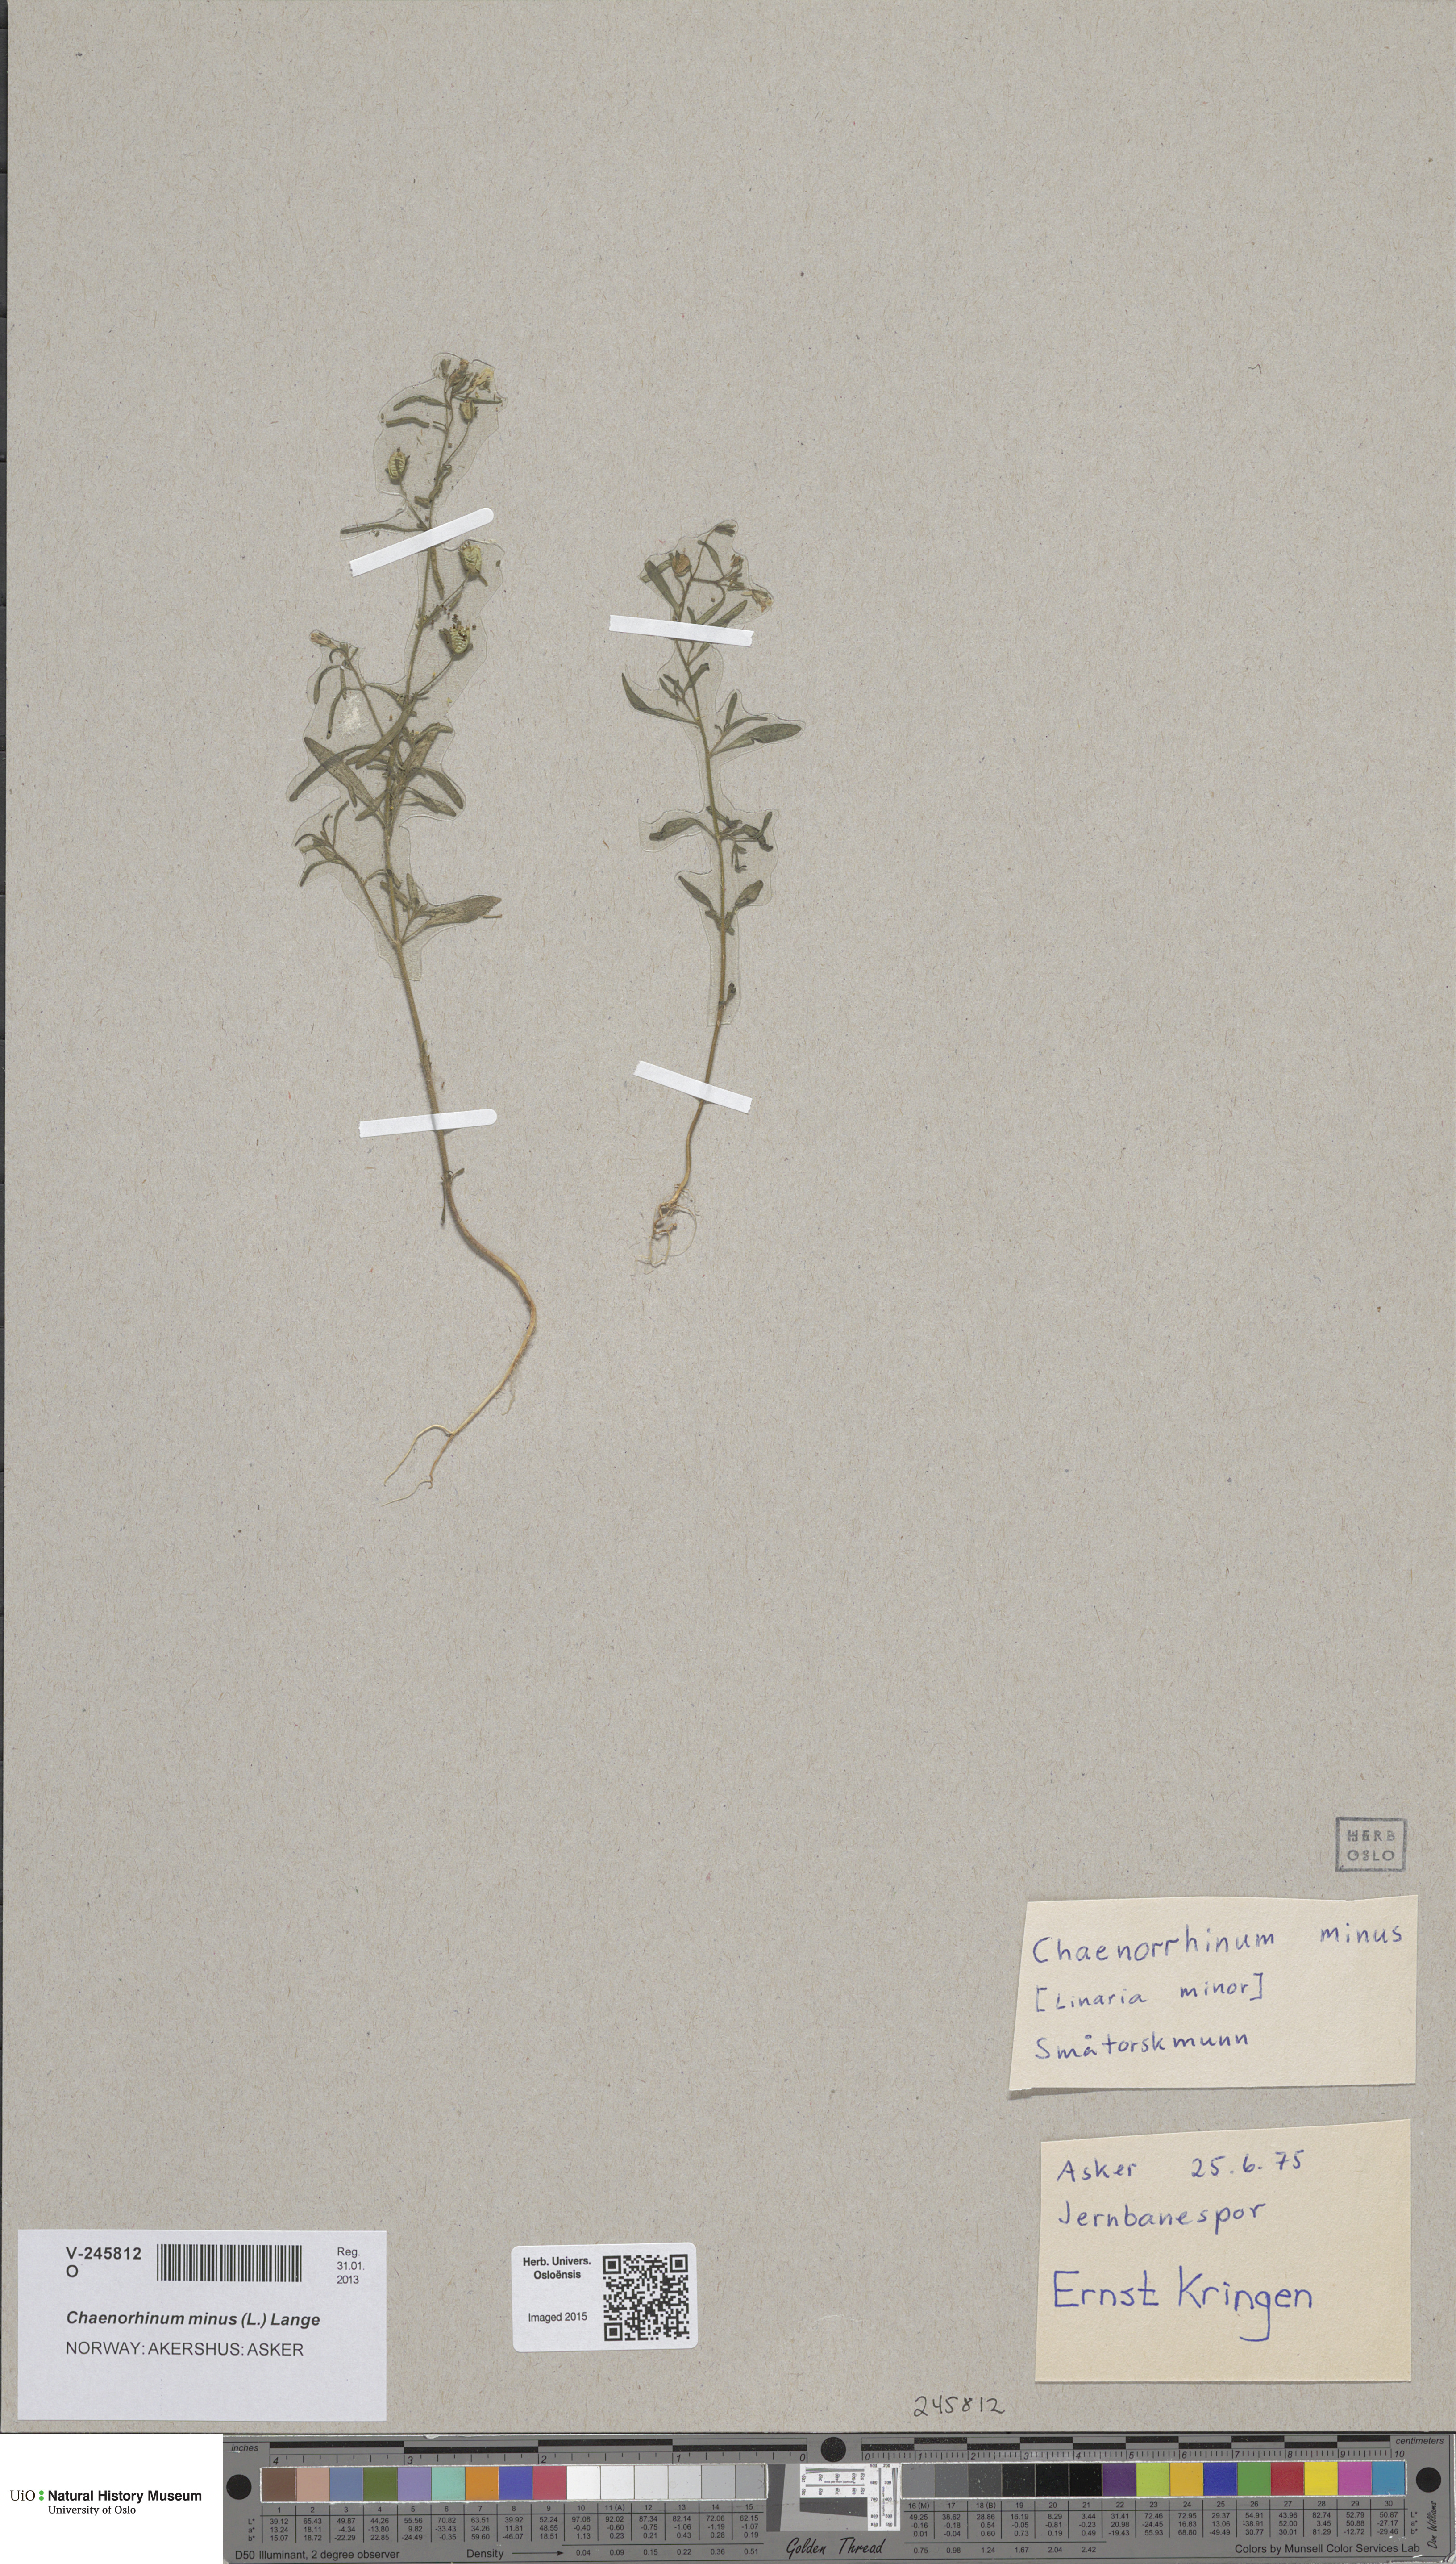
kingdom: Plantae
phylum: Tracheophyta
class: Magnoliopsida
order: Lamiales
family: Plantaginaceae
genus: Chaenorhinum
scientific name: Chaenorhinum minus
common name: Dwarf snapdragon
